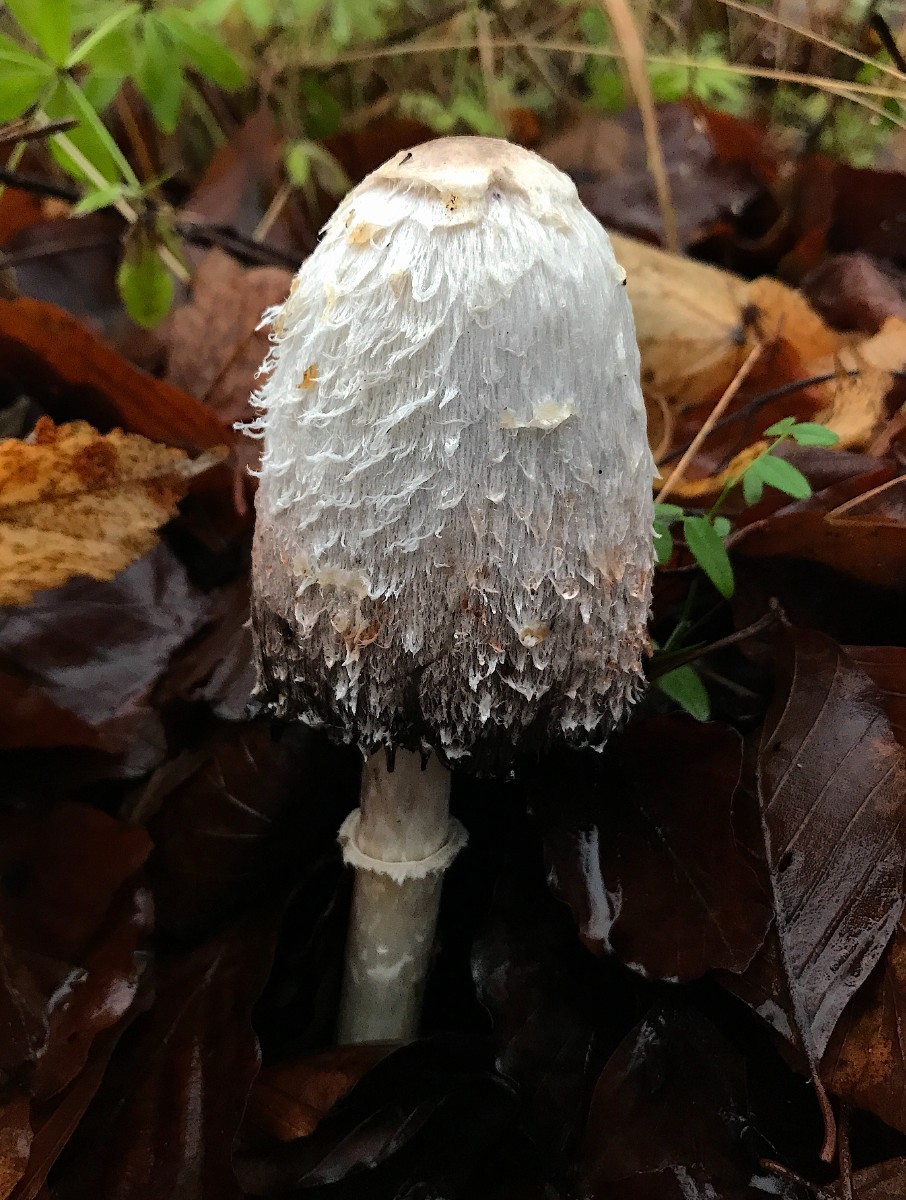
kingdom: Fungi
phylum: Basidiomycota
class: Agaricomycetes
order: Agaricales
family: Agaricaceae
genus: Coprinus
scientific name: Coprinus comatus
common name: stor parykhat
